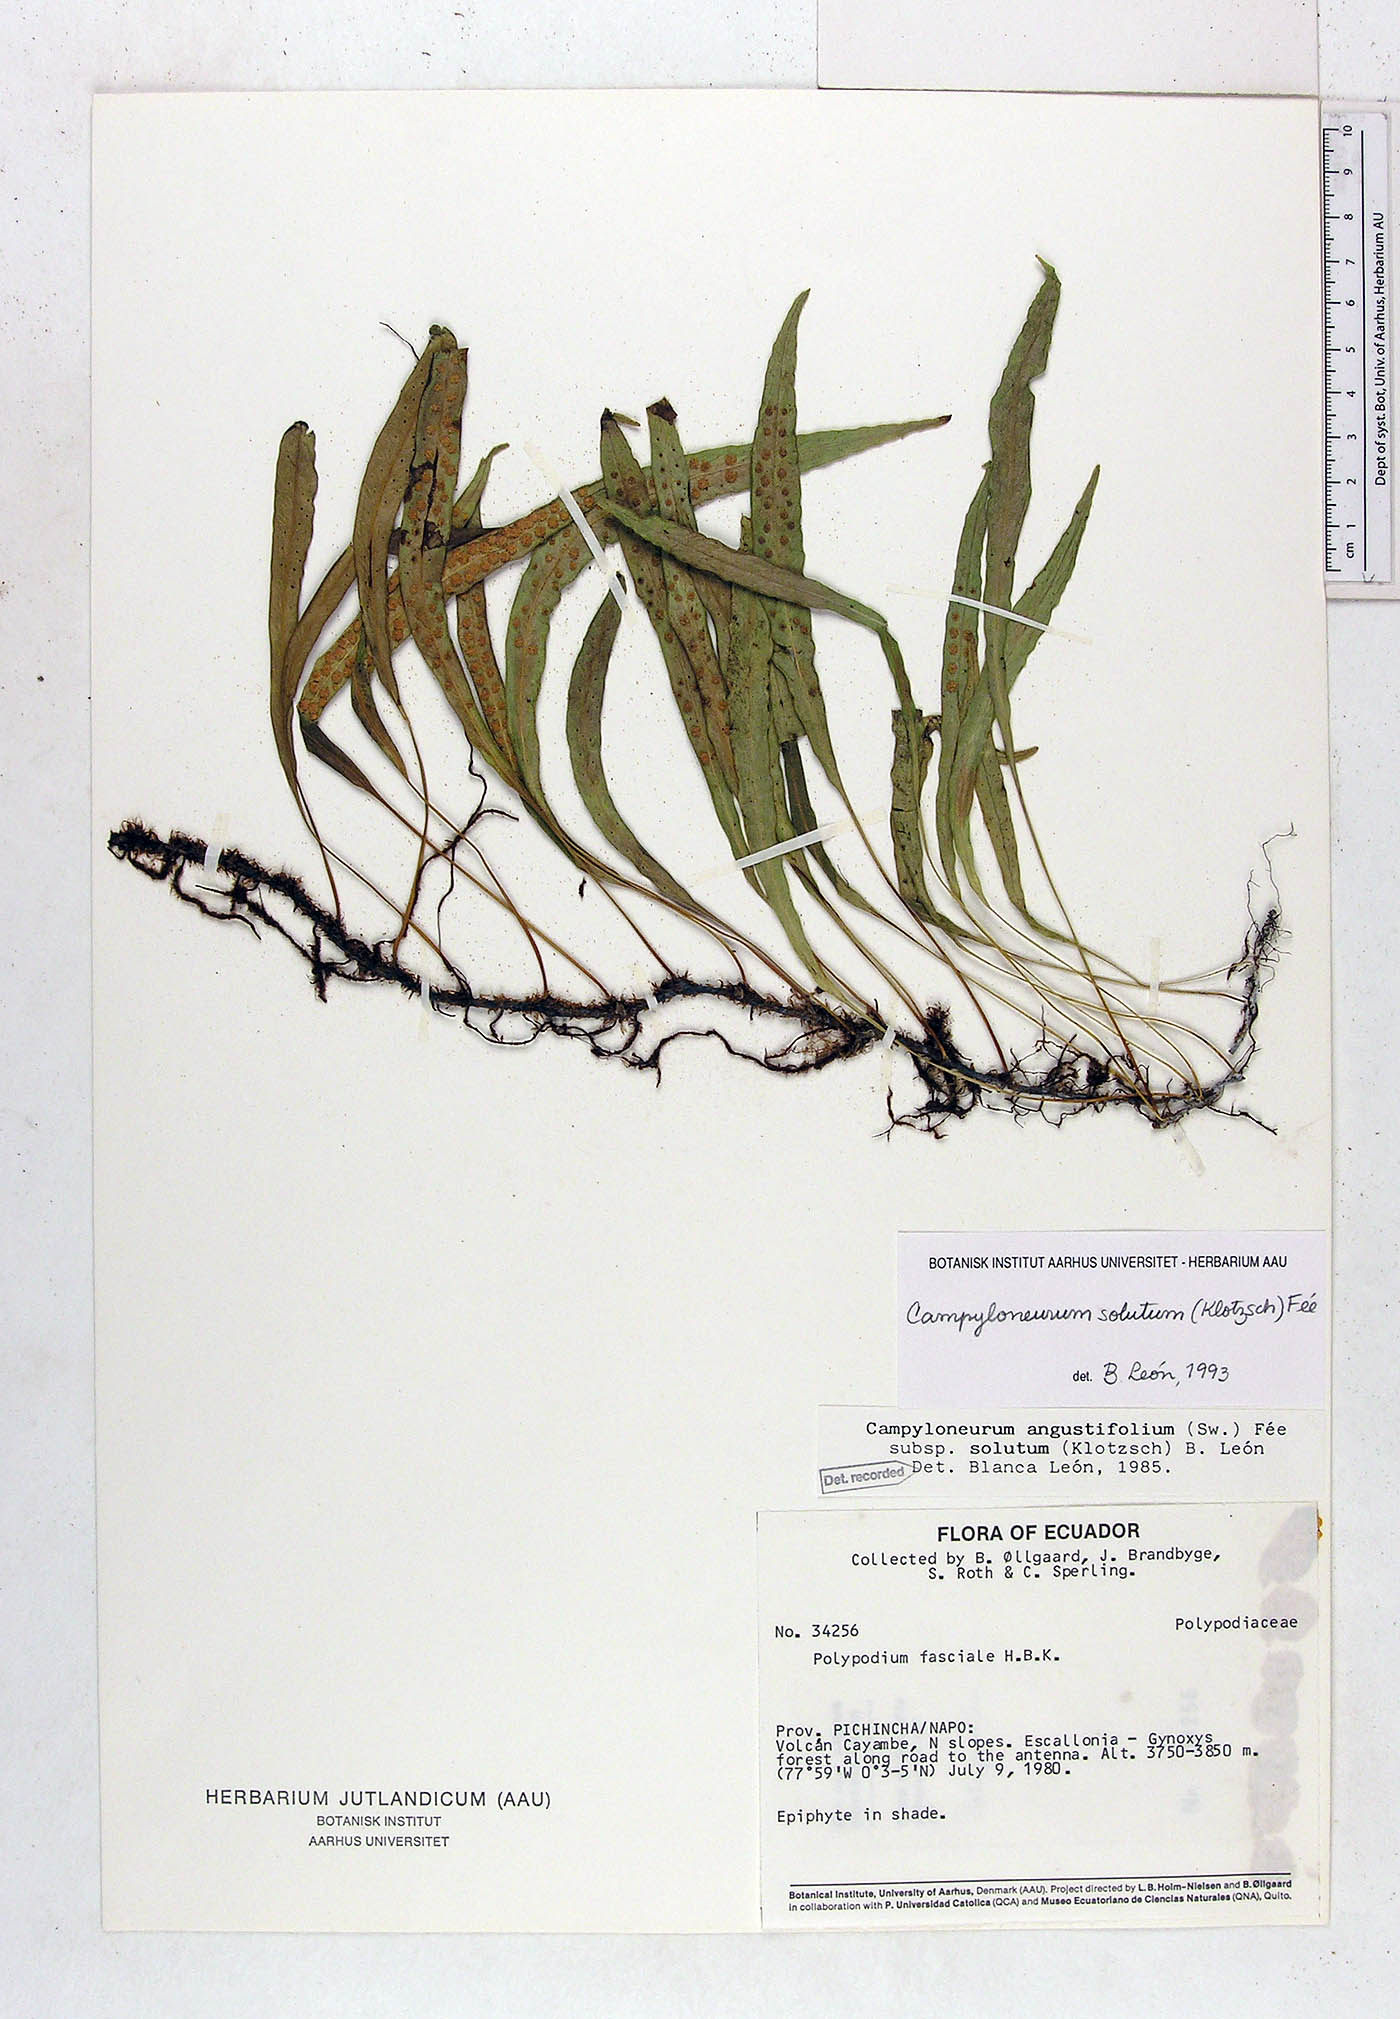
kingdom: Plantae
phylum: Tracheophyta
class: Polypodiopsida
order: Polypodiales
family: Polypodiaceae
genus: Campyloneurum
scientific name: Campyloneurum solutum
